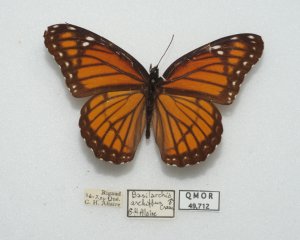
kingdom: Animalia
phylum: Arthropoda
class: Insecta
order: Lepidoptera
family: Nymphalidae
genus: Limenitis
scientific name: Limenitis archippus
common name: Viceroy
